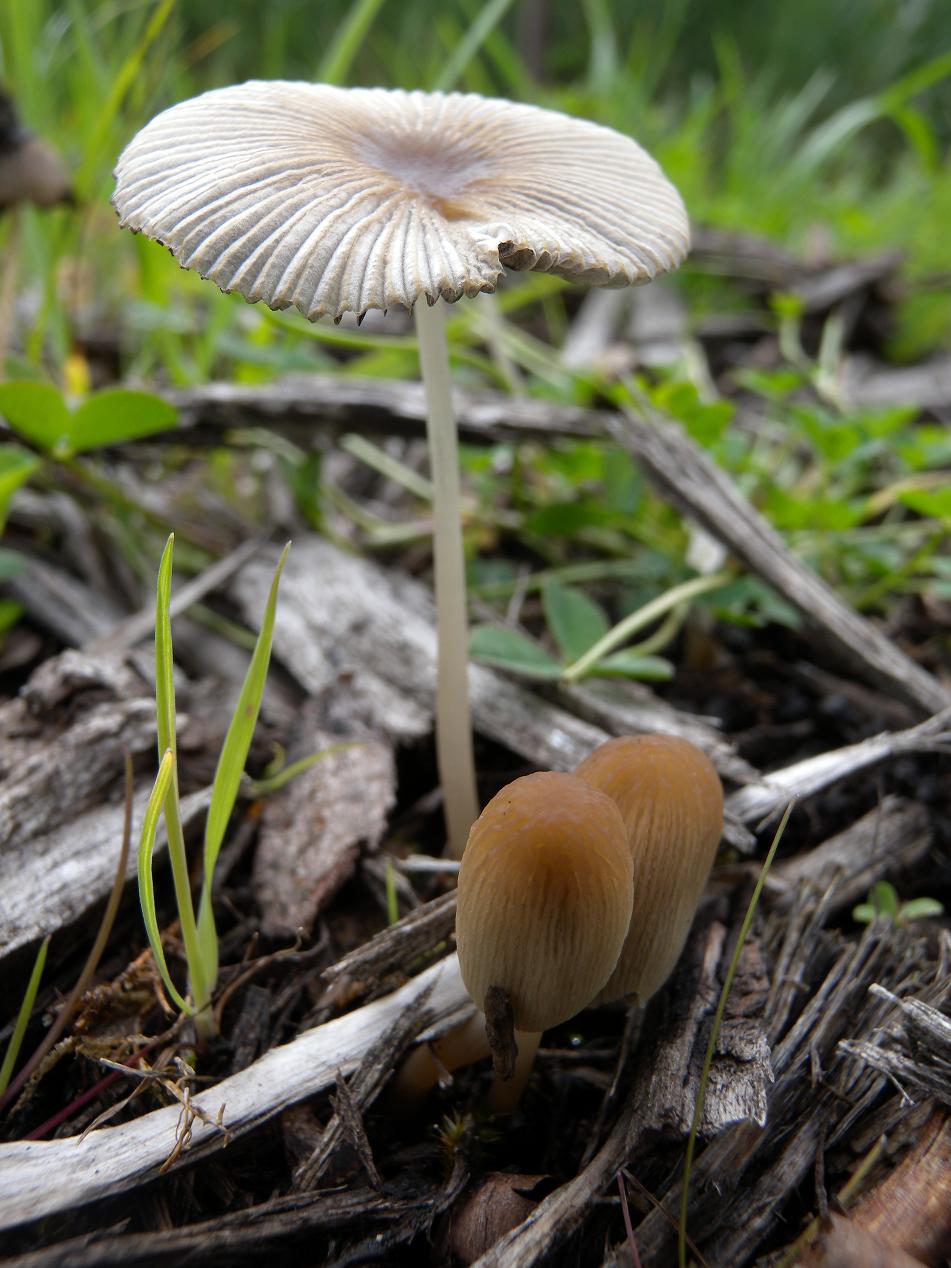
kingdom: Fungi
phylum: Basidiomycota
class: Agaricomycetes
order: Agaricales
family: Psathyrellaceae
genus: Parasola
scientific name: Parasola lactea
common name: glat hjulhat
